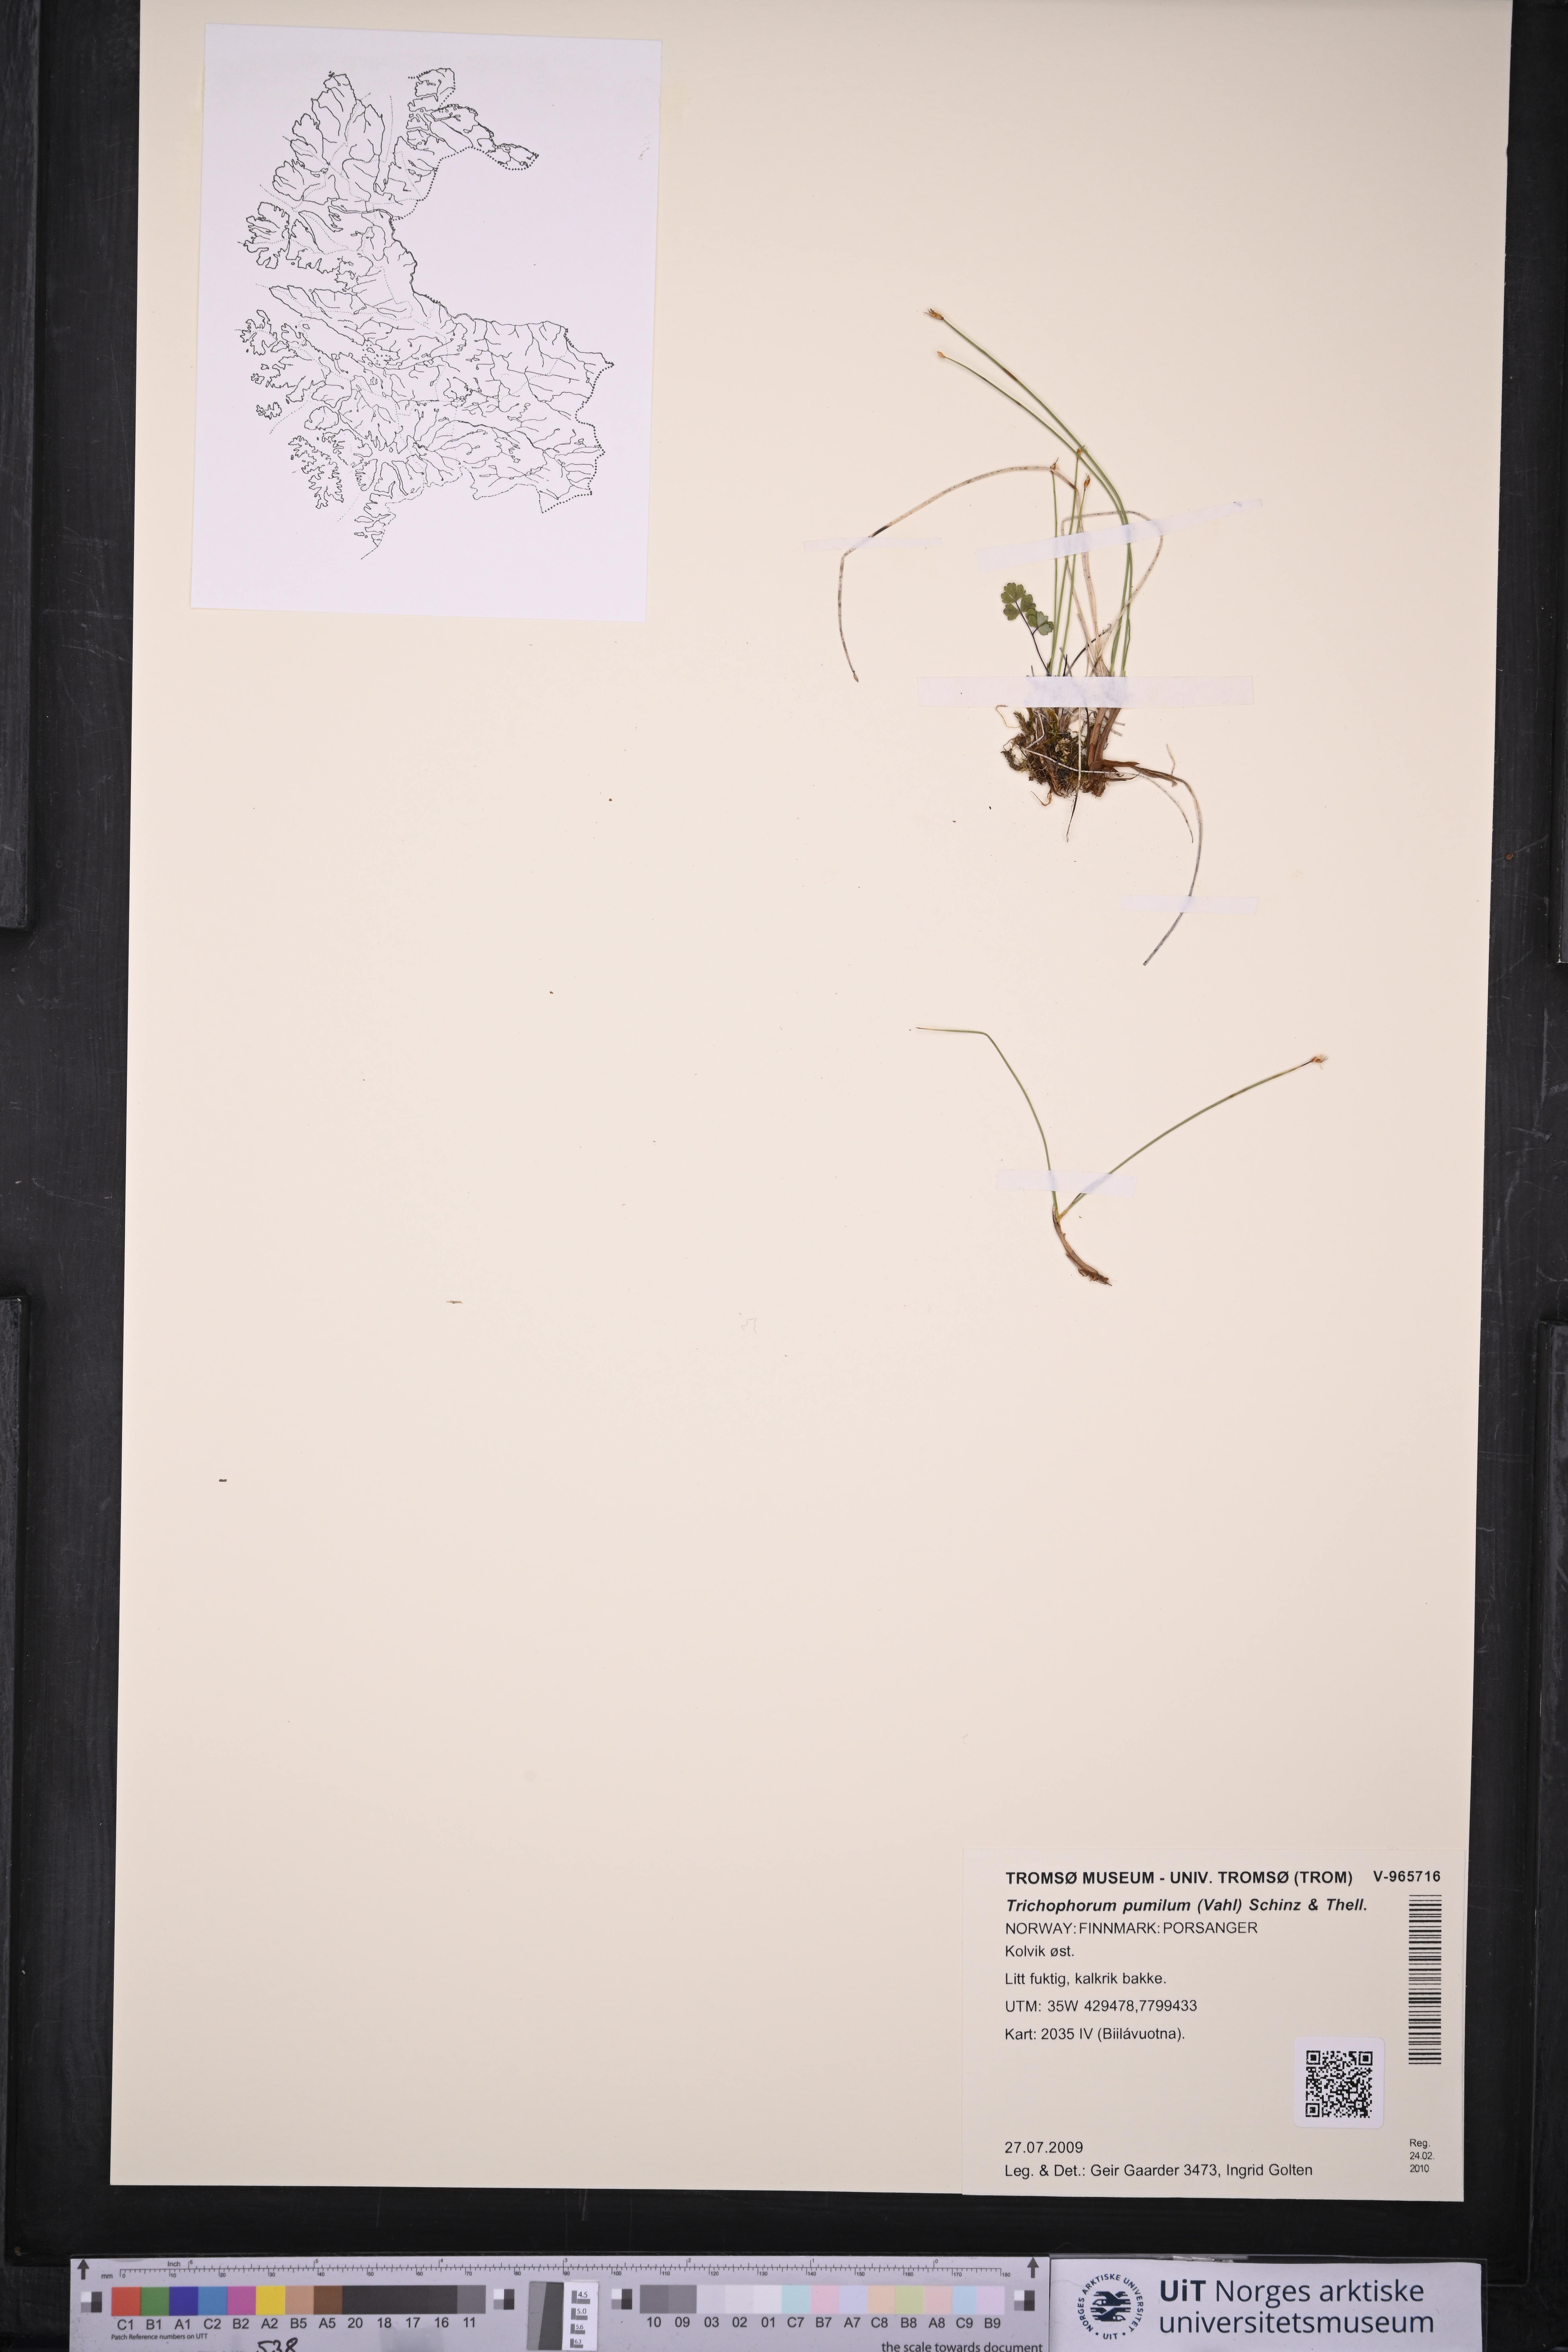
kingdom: Plantae
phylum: Tracheophyta
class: Liliopsida
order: Poales
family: Cyperaceae
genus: Trichophorum
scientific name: Trichophorum pumilum
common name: Rolland's bulrush
